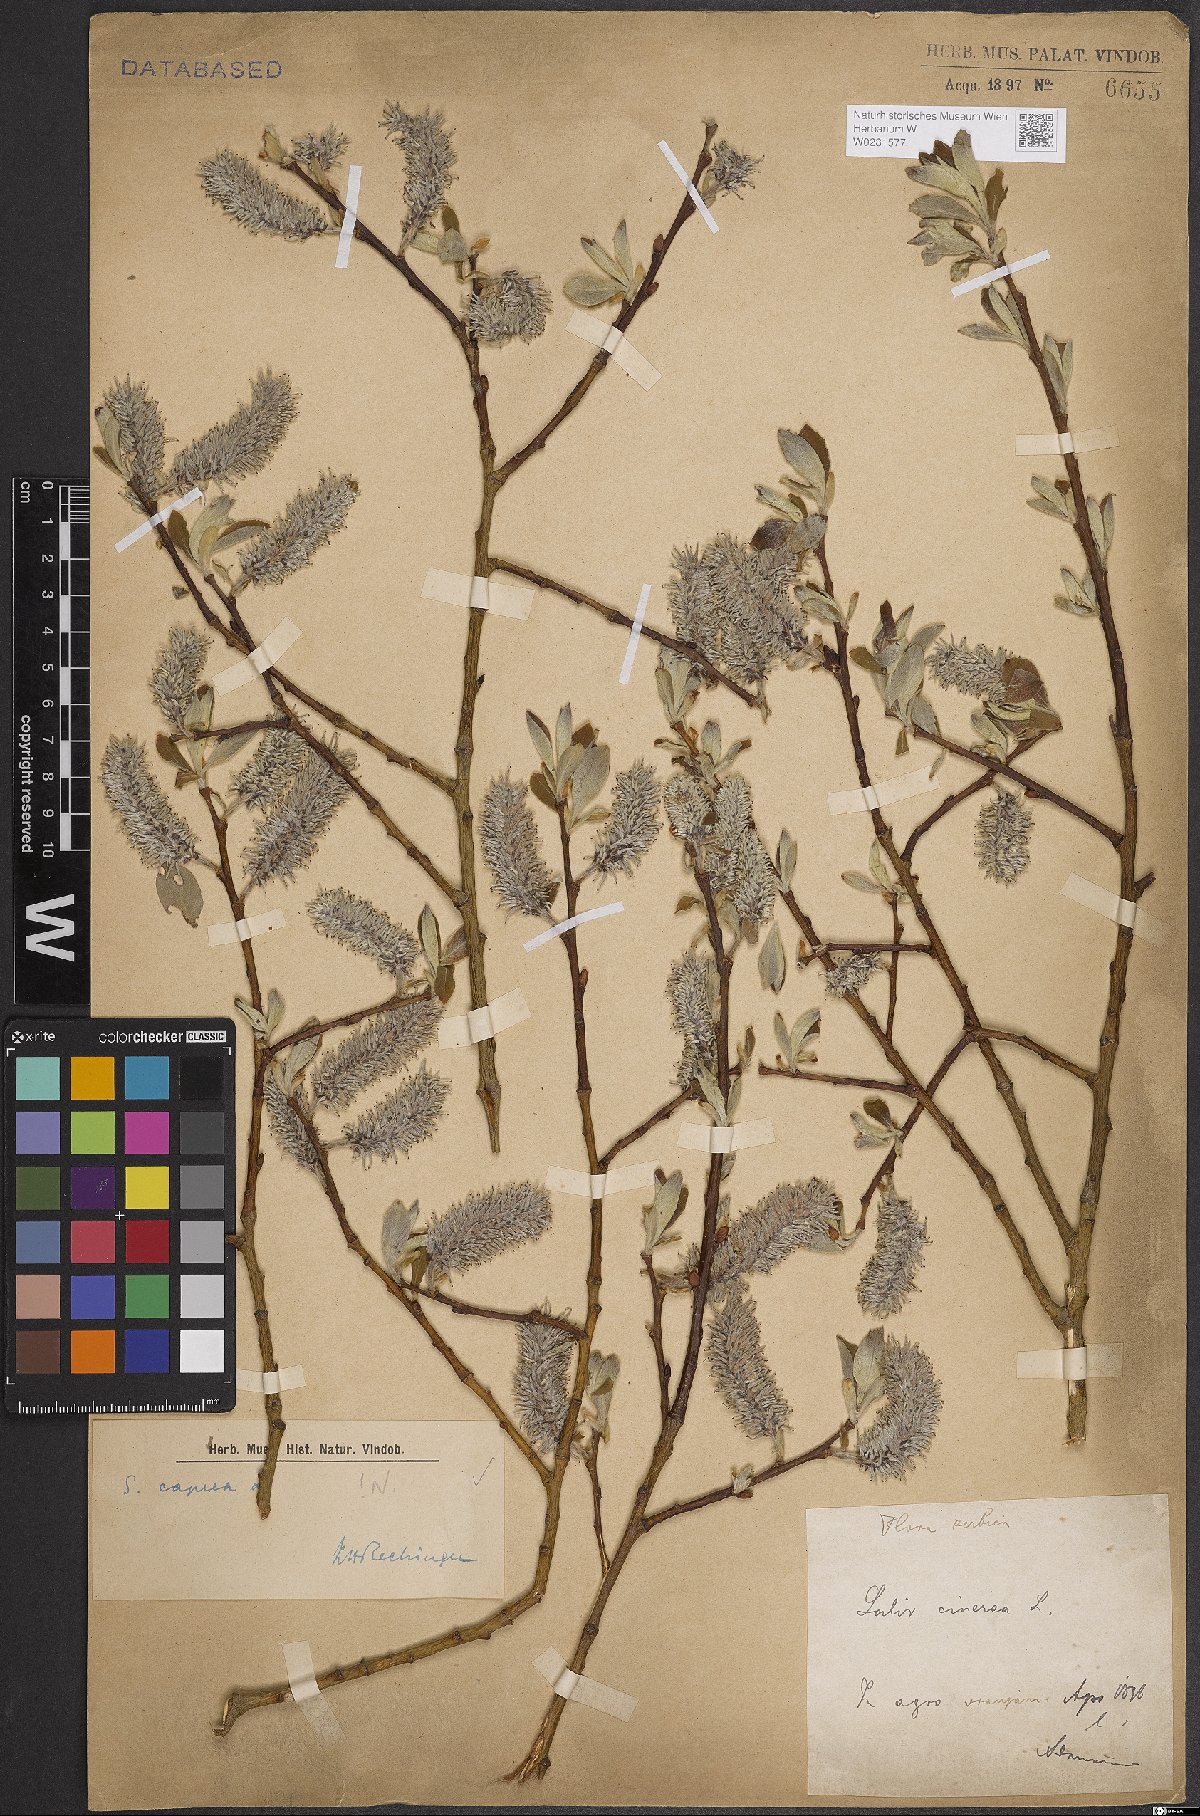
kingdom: Plantae
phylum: Tracheophyta
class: Magnoliopsida
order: Malpighiales
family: Salicaceae
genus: Salix
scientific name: Salix caprea
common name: Goat willow
